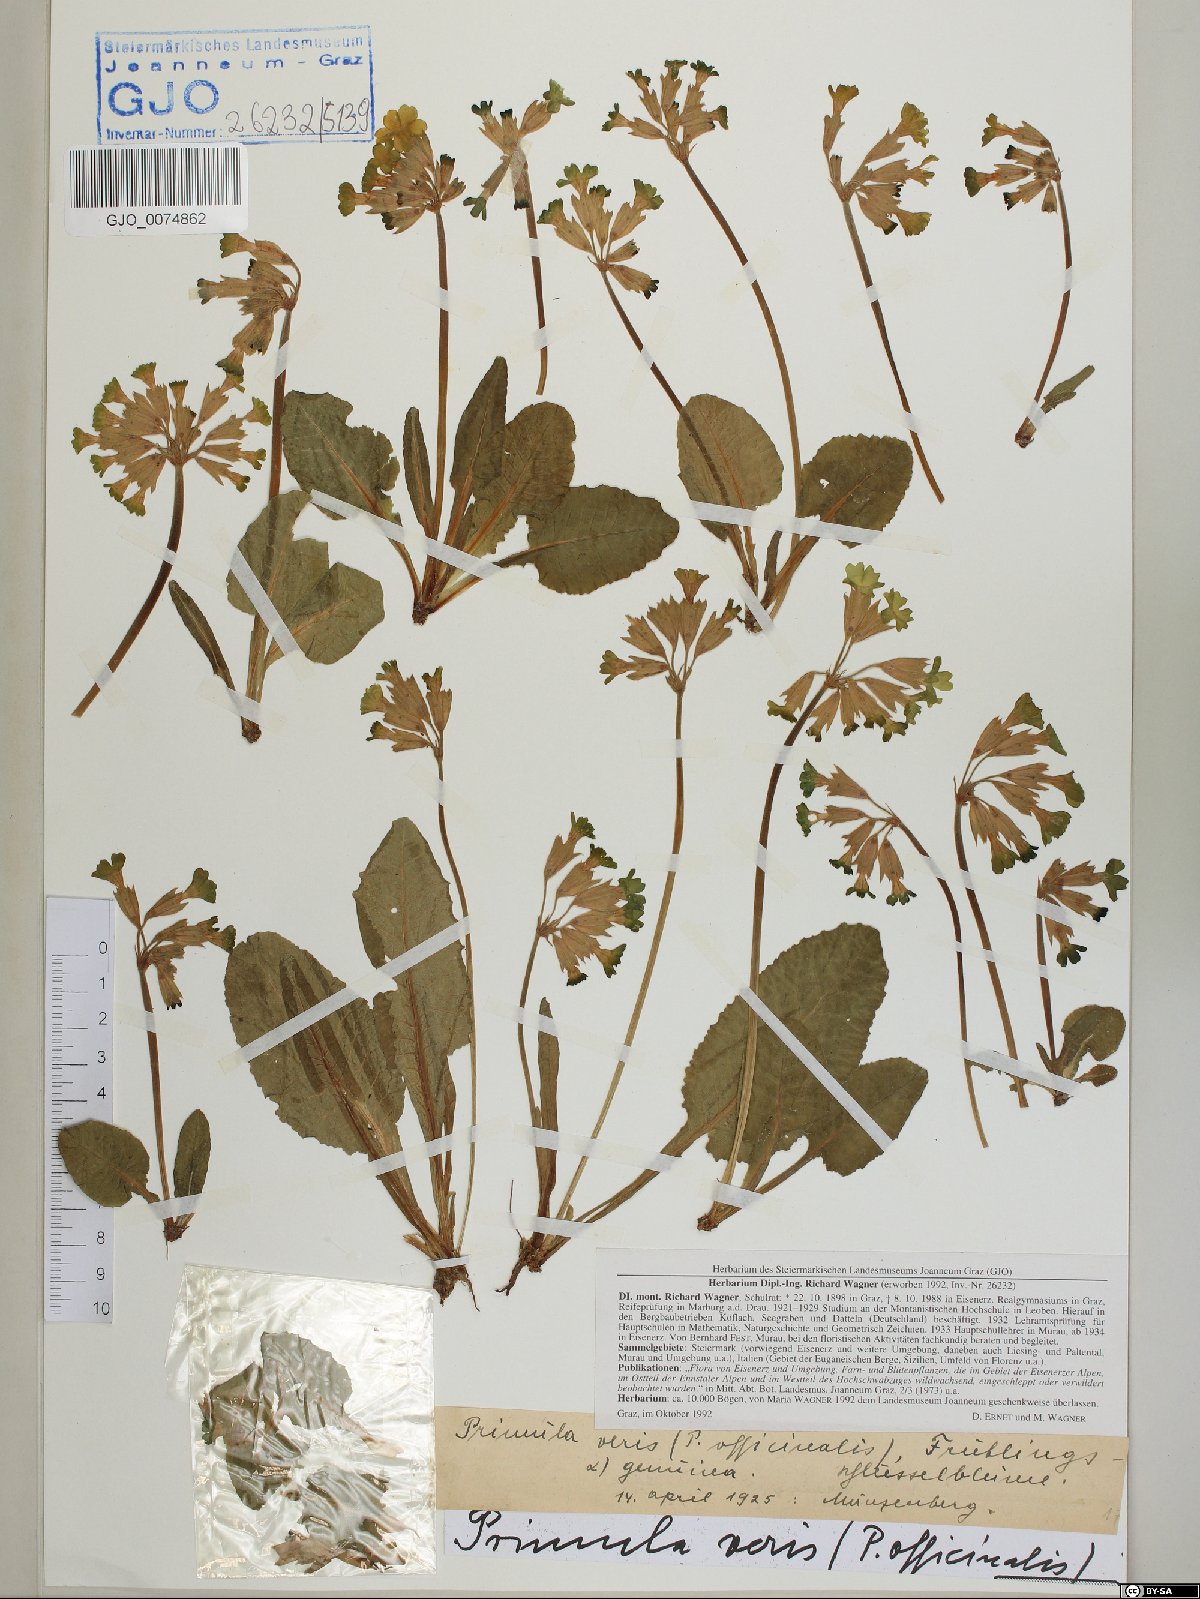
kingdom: Plantae
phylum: Tracheophyta
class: Magnoliopsida
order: Ericales
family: Primulaceae
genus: Primula
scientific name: Primula veris
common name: Cowslip
